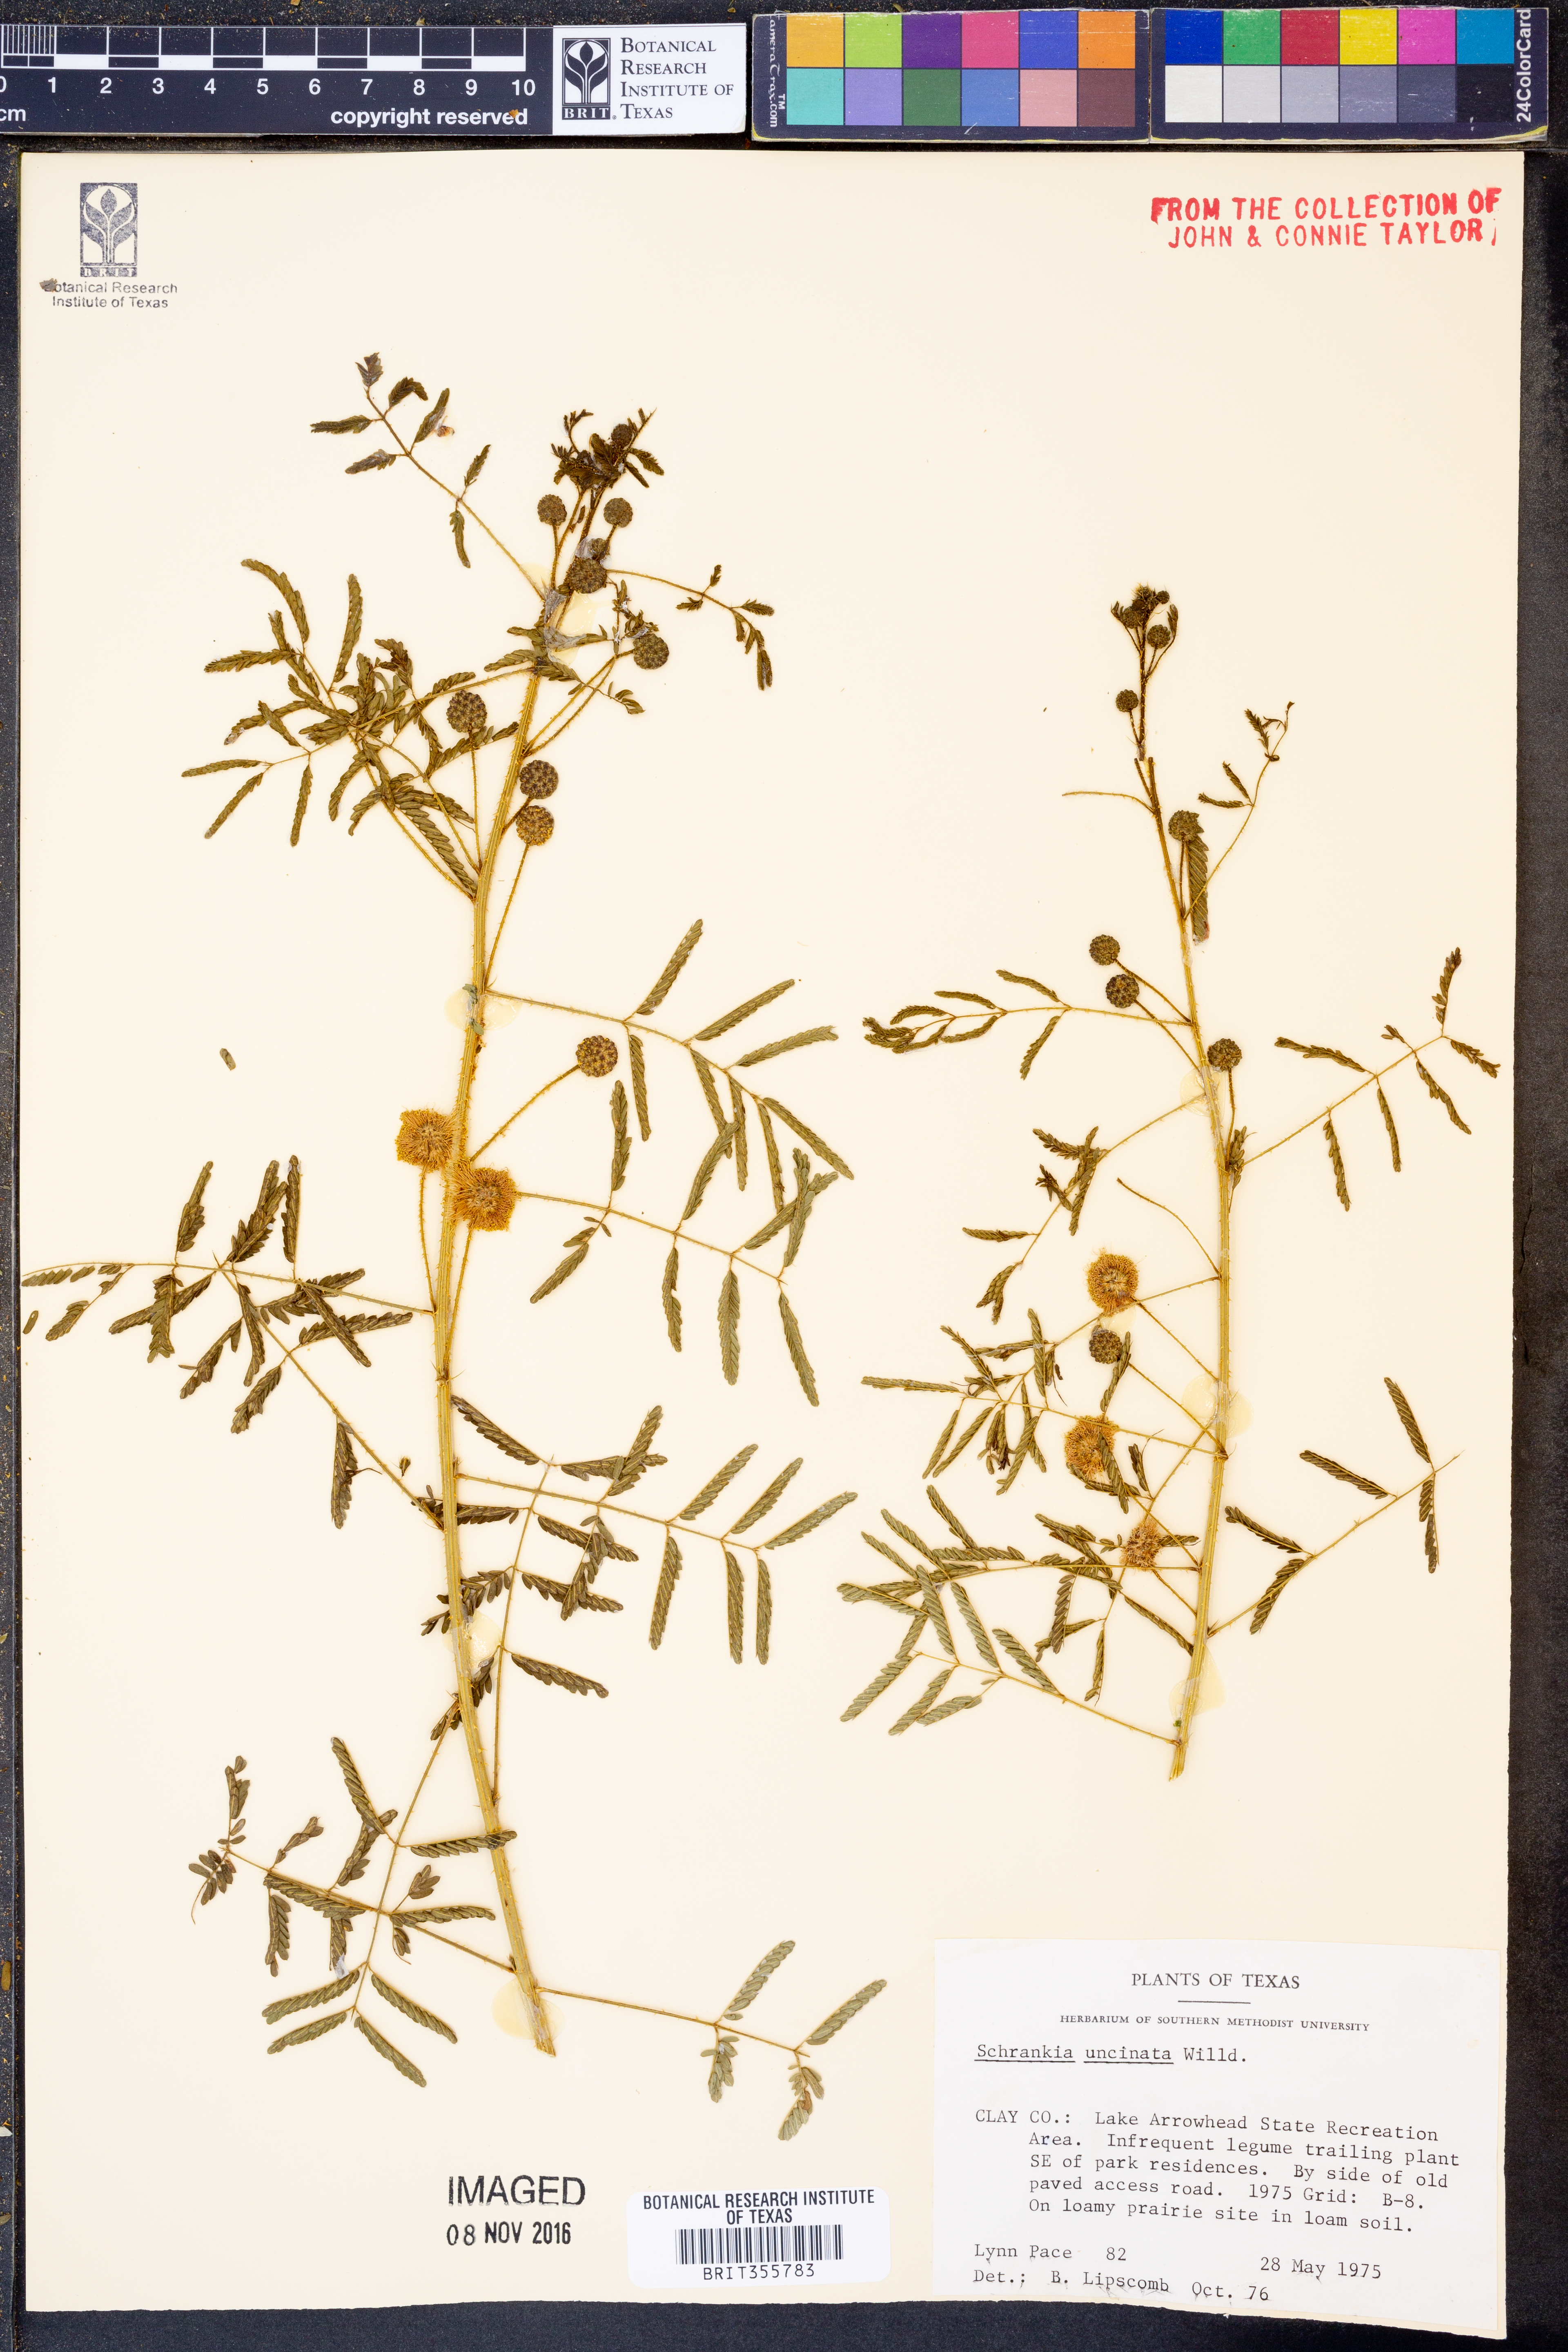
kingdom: Plantae
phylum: Tracheophyta
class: Magnoliopsida
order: Fabales
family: Fabaceae
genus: Mimosa
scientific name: Mimosa quadrivalvis
